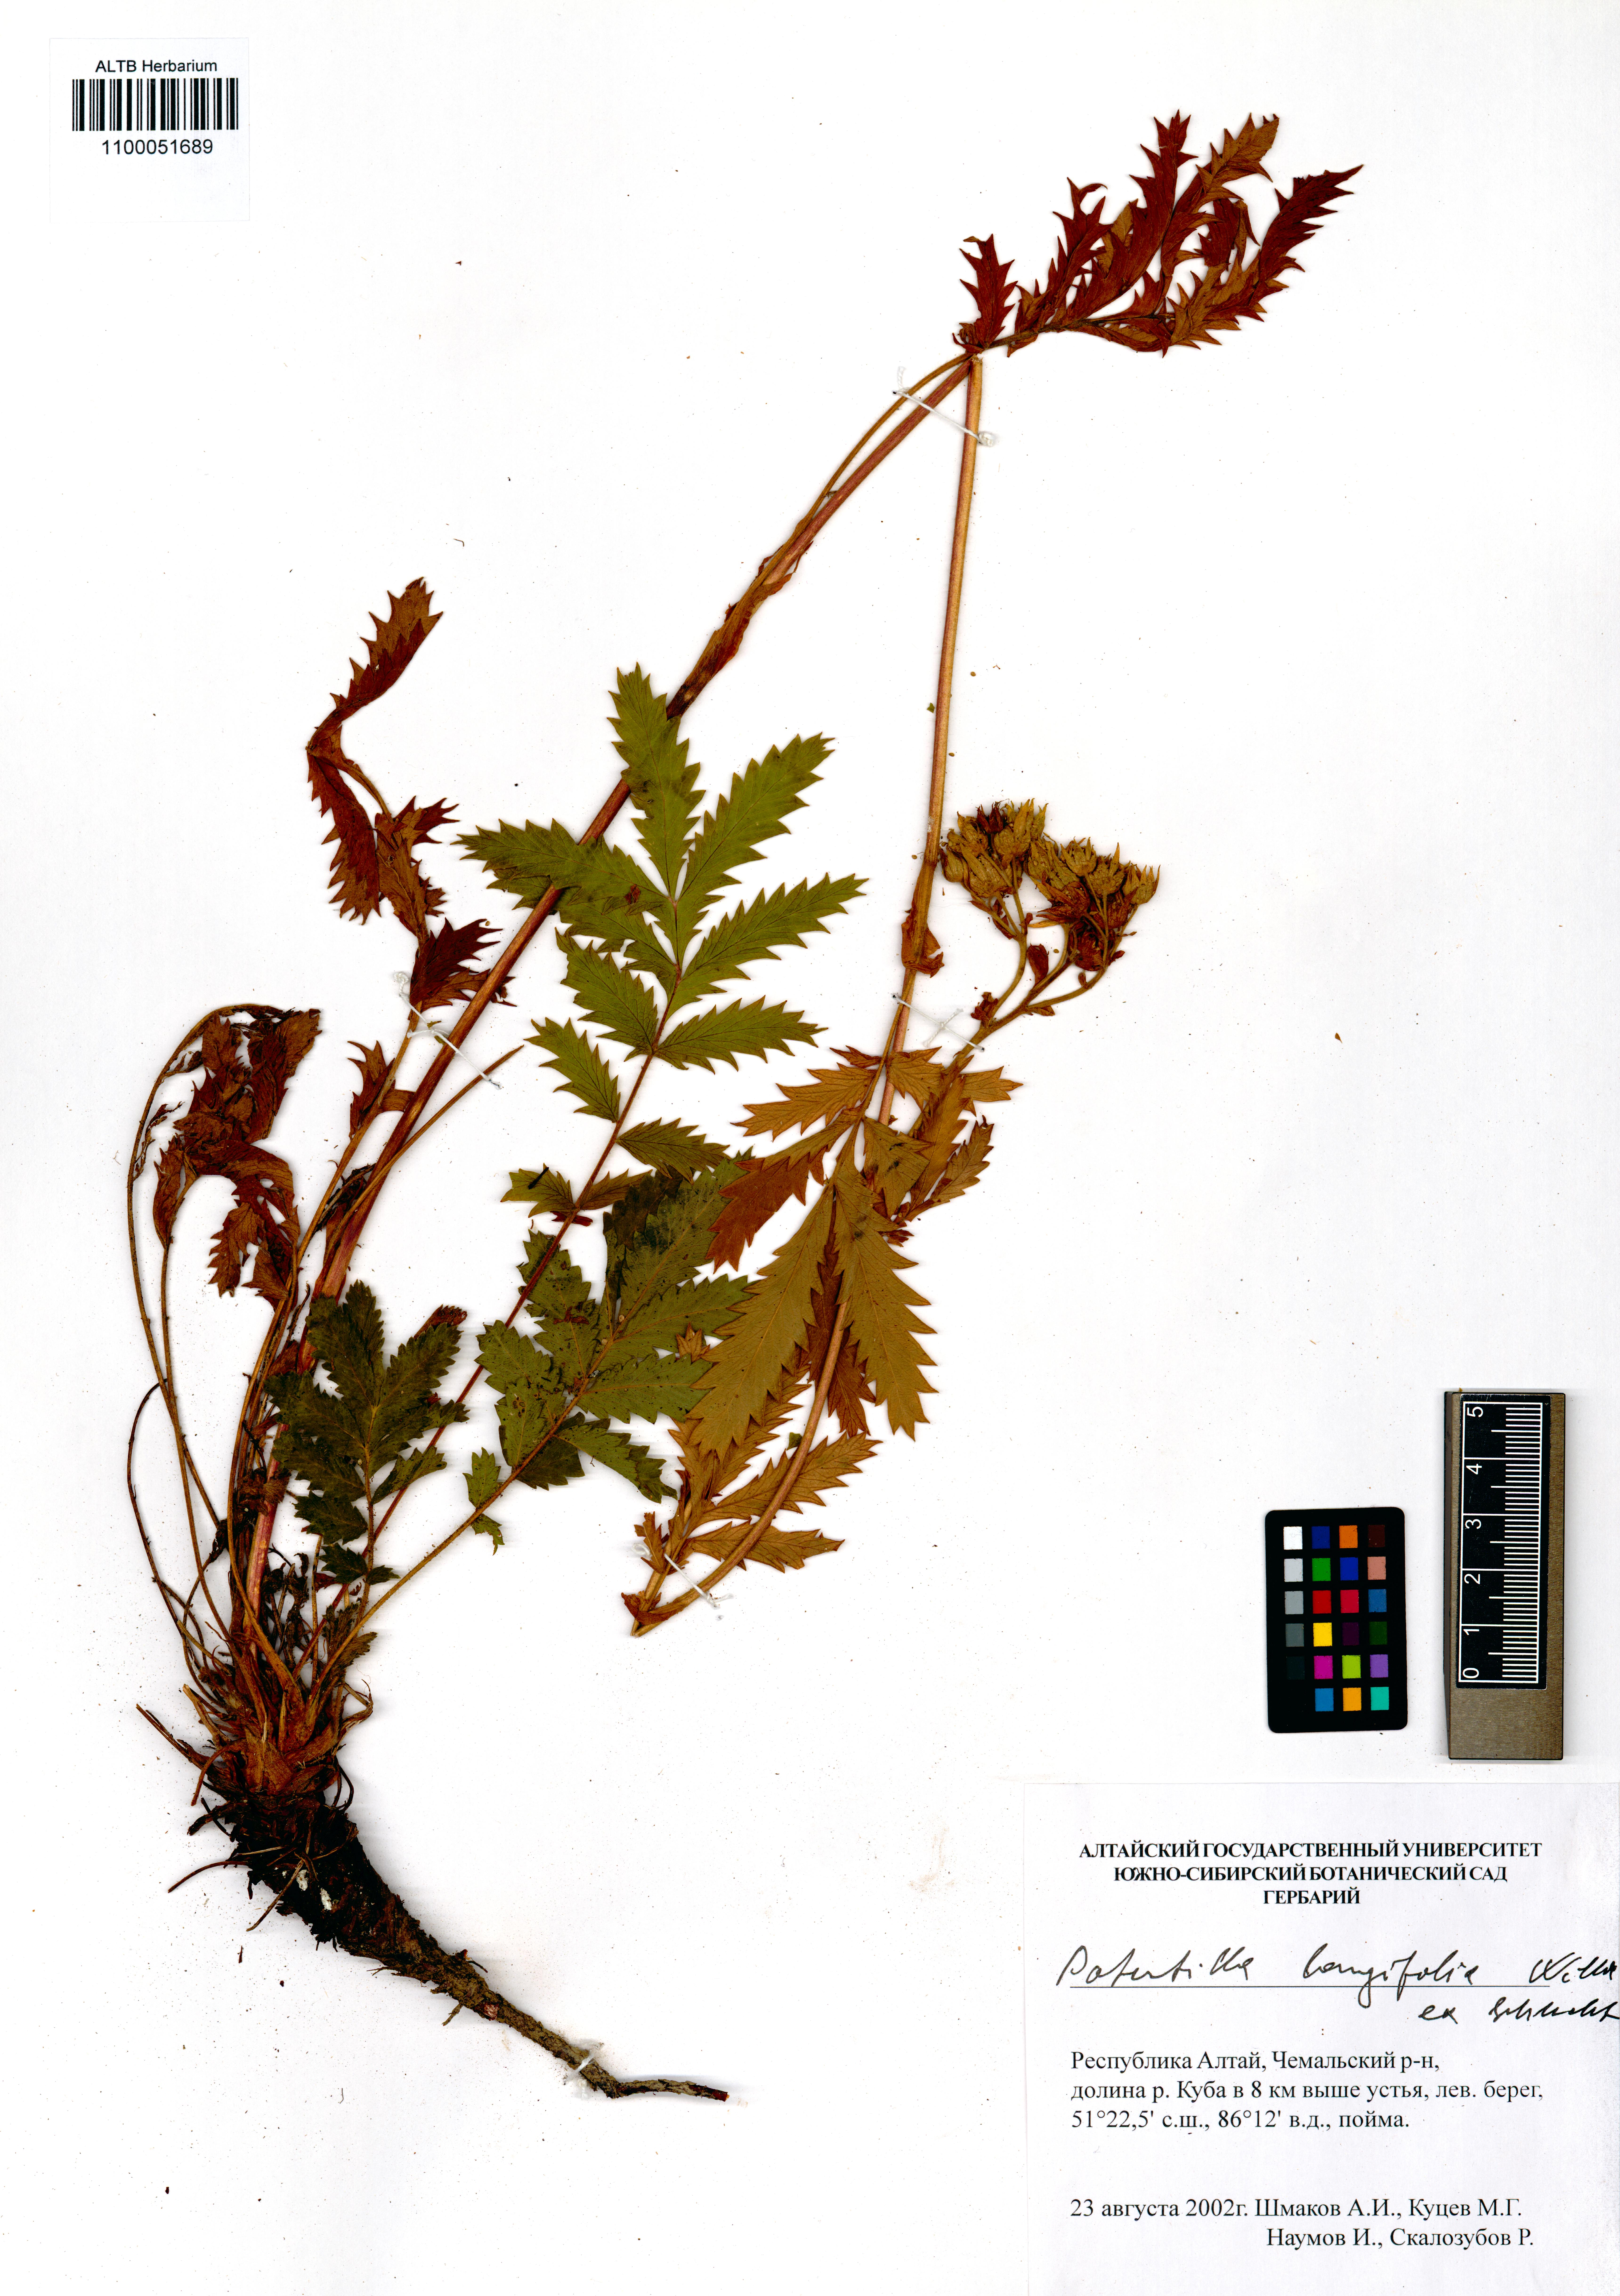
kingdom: Plantae
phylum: Tracheophyta
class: Magnoliopsida
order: Rosales
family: Rosaceae
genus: Potentilla
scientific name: Potentilla longifolia
